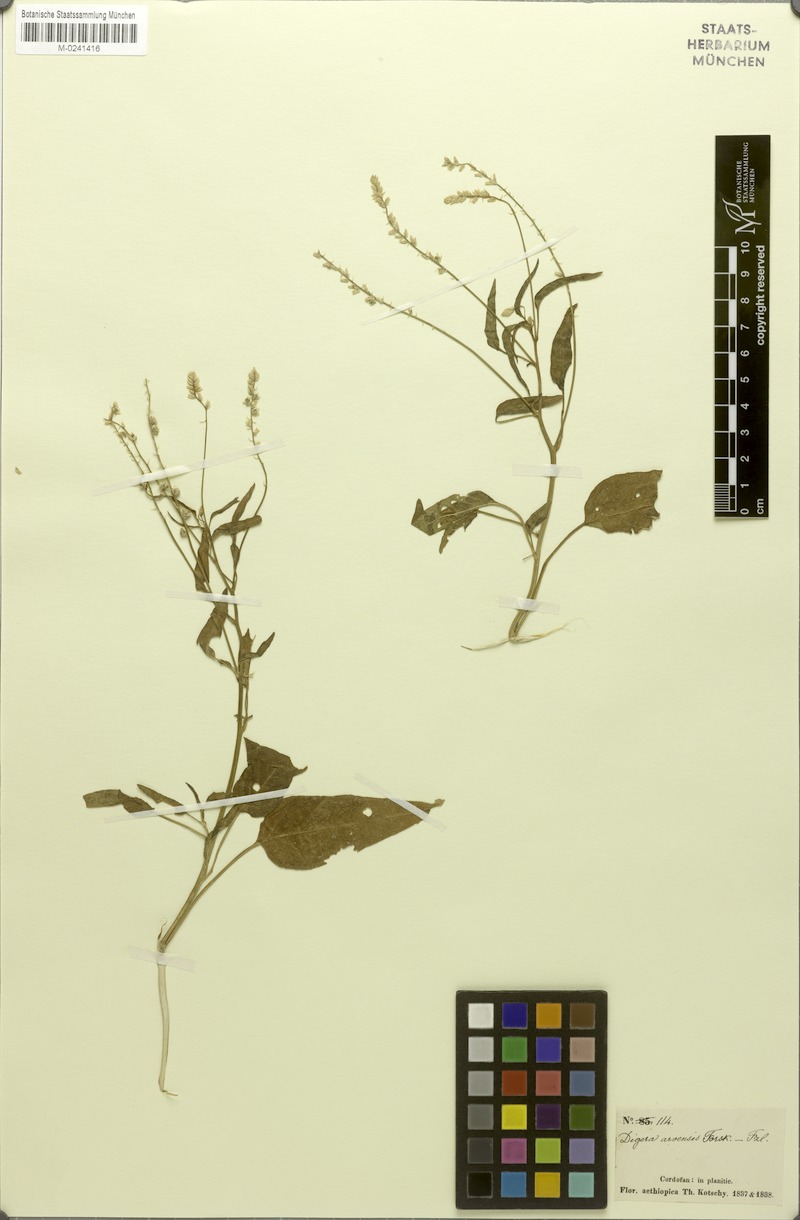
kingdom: Plantae
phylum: Tracheophyta
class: Magnoliopsida
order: Caryophyllales
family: Amaranthaceae
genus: Digera
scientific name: Digera muricata
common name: False amaranth
